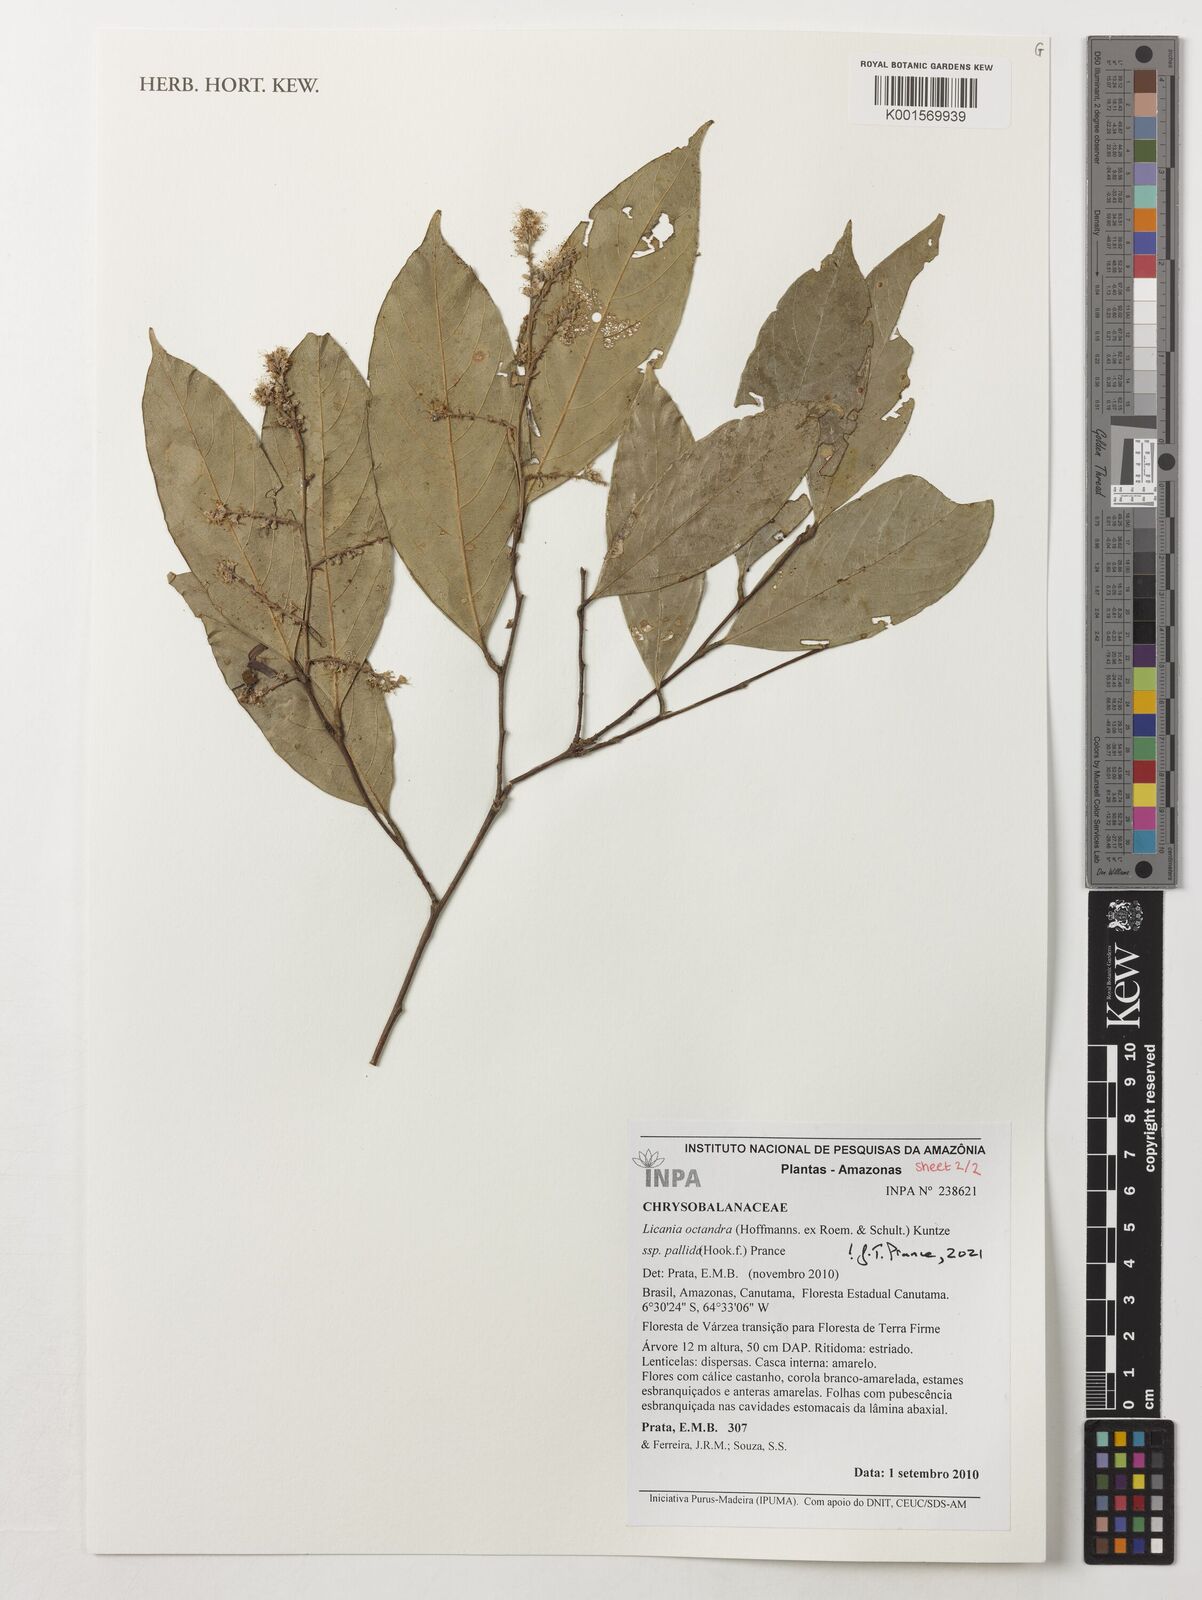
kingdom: Plantae
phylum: Tracheophyta
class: Magnoliopsida
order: Malpighiales
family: Chrysobalanaceae
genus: Licania
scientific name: Licania octandra
